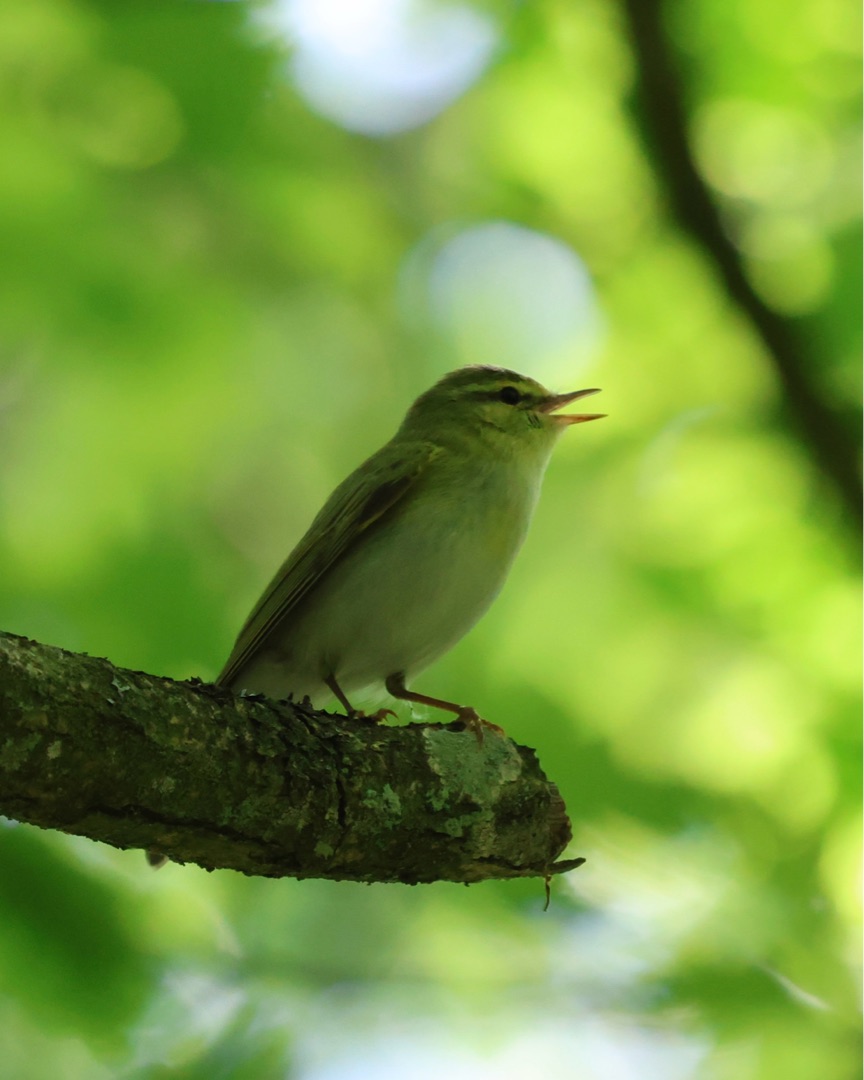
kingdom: Animalia
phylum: Chordata
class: Aves
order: Passeriformes
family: Phylloscopidae
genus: Phylloscopus
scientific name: Phylloscopus sibillatrix
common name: Skovsanger
